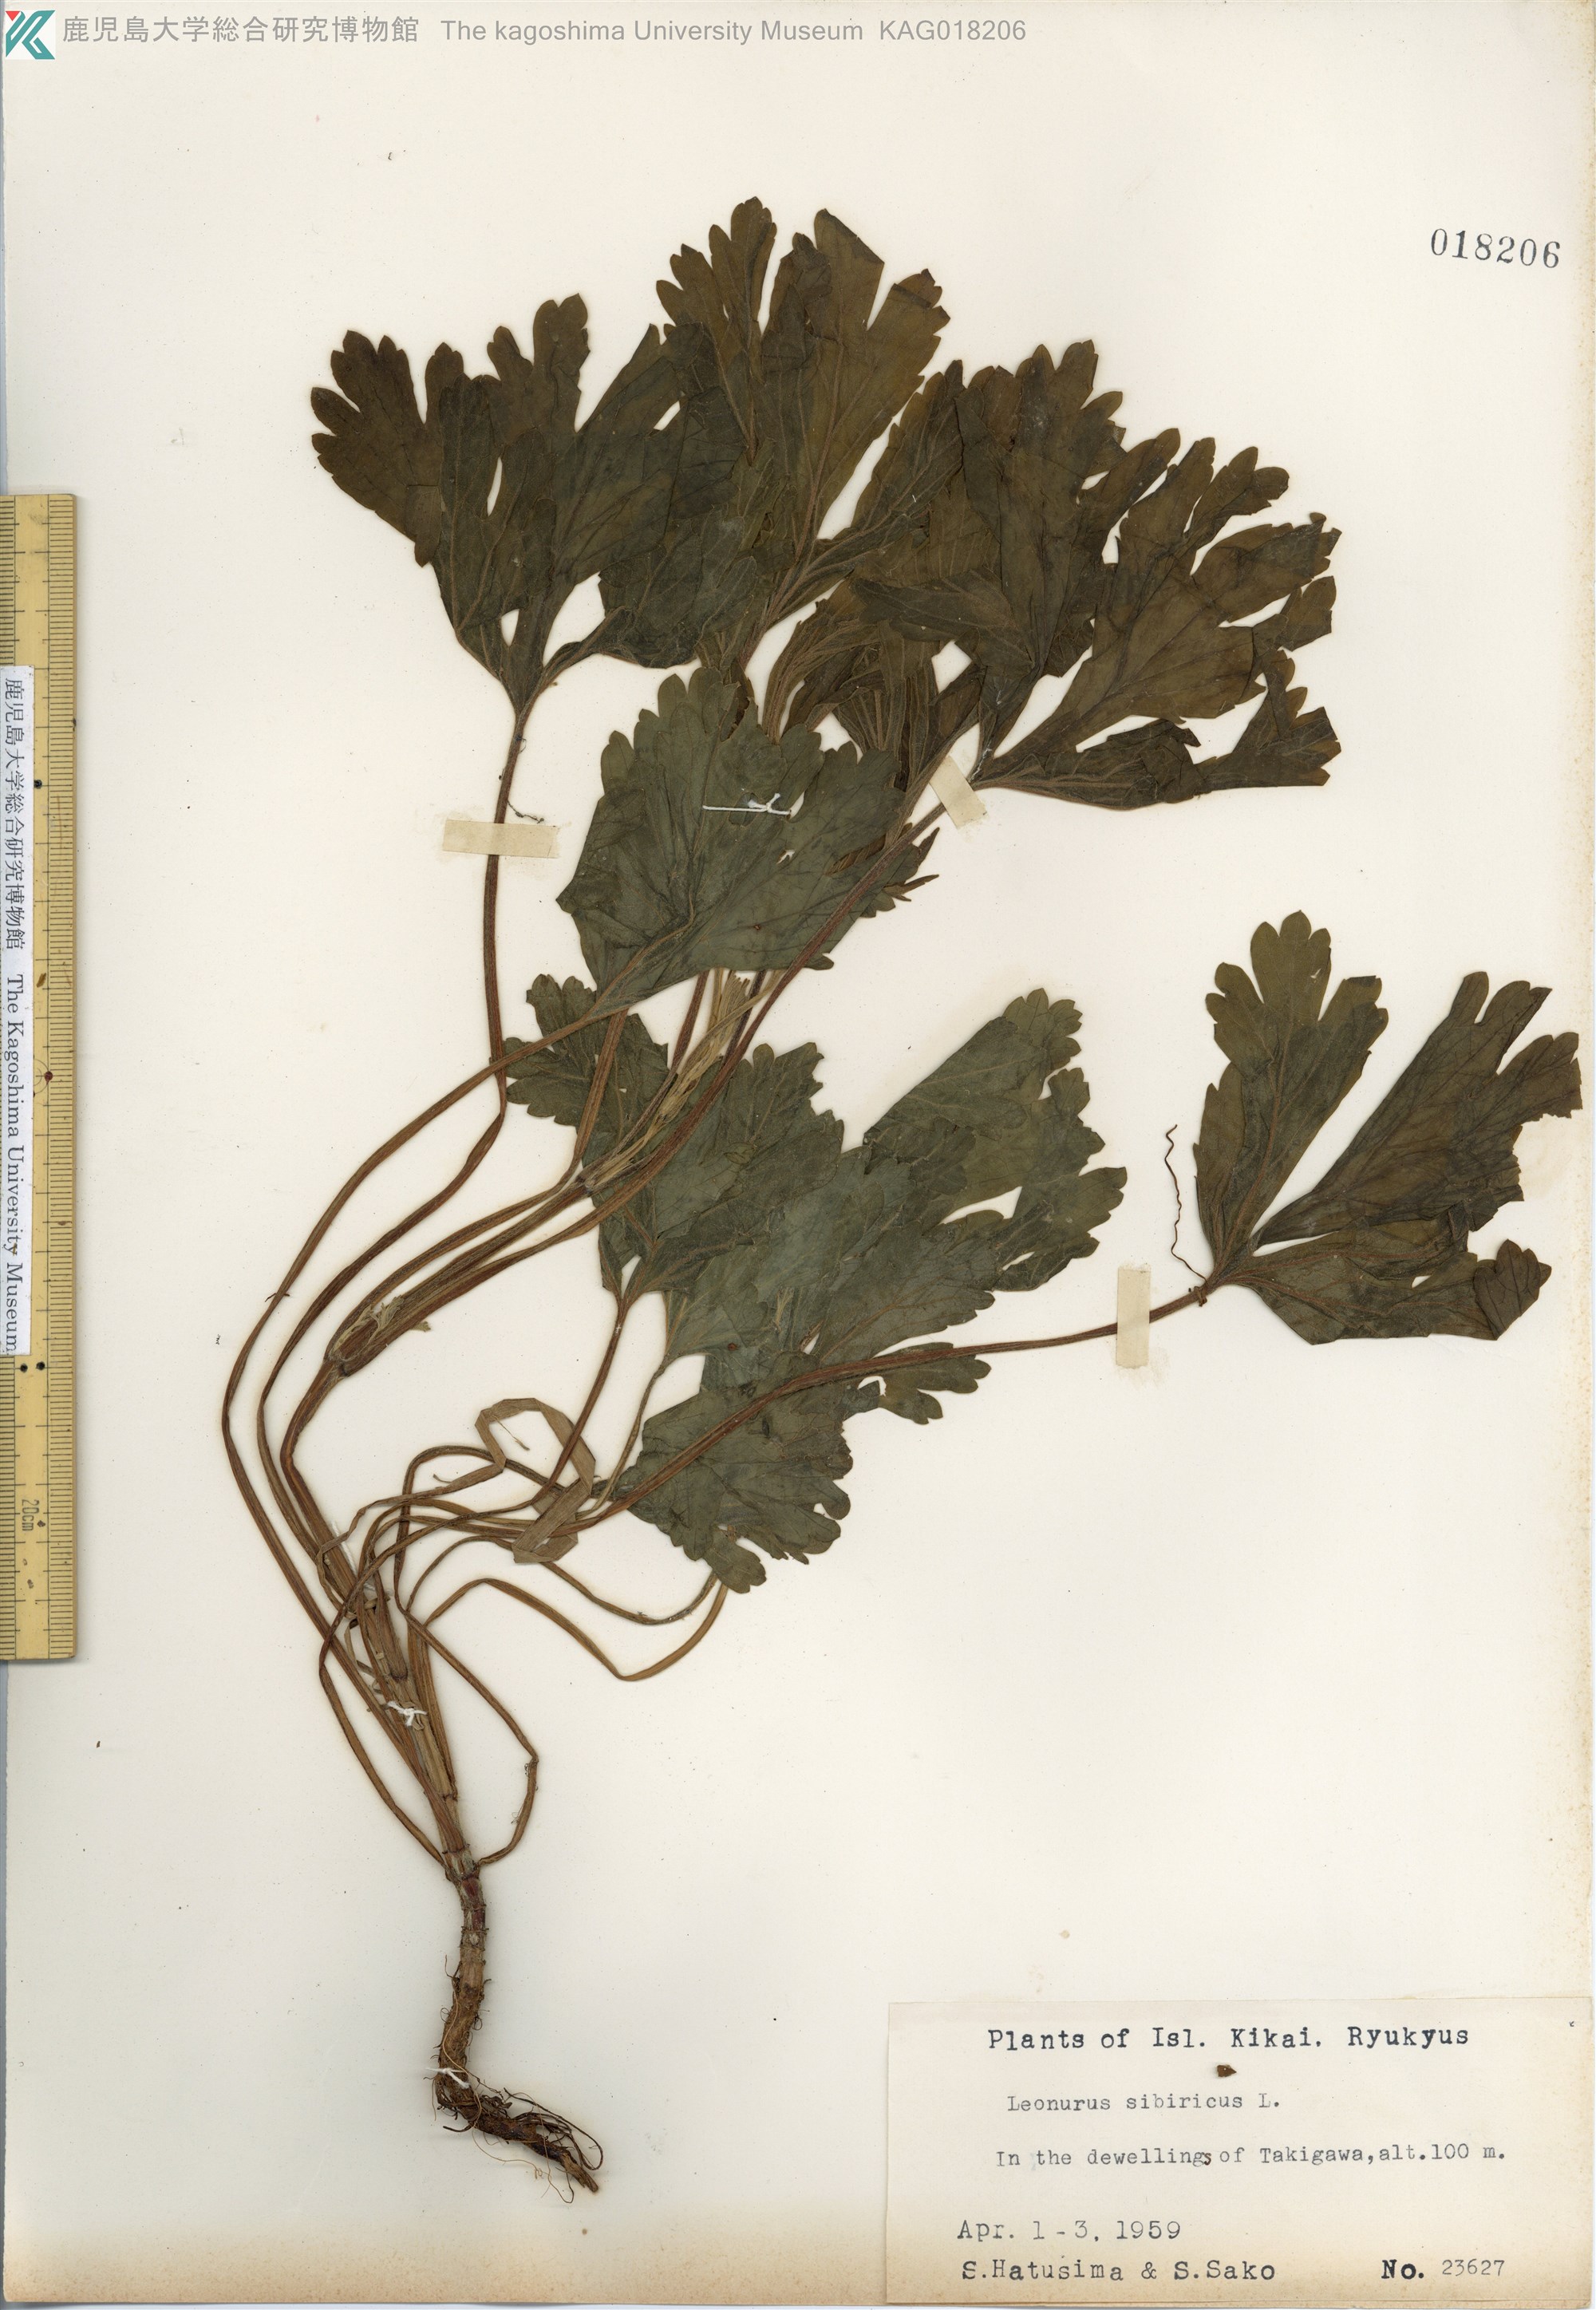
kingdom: Plantae
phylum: Tracheophyta
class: Magnoliopsida
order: Lamiales
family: Lamiaceae
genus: Leonurus
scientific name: Leonurus japonicus
